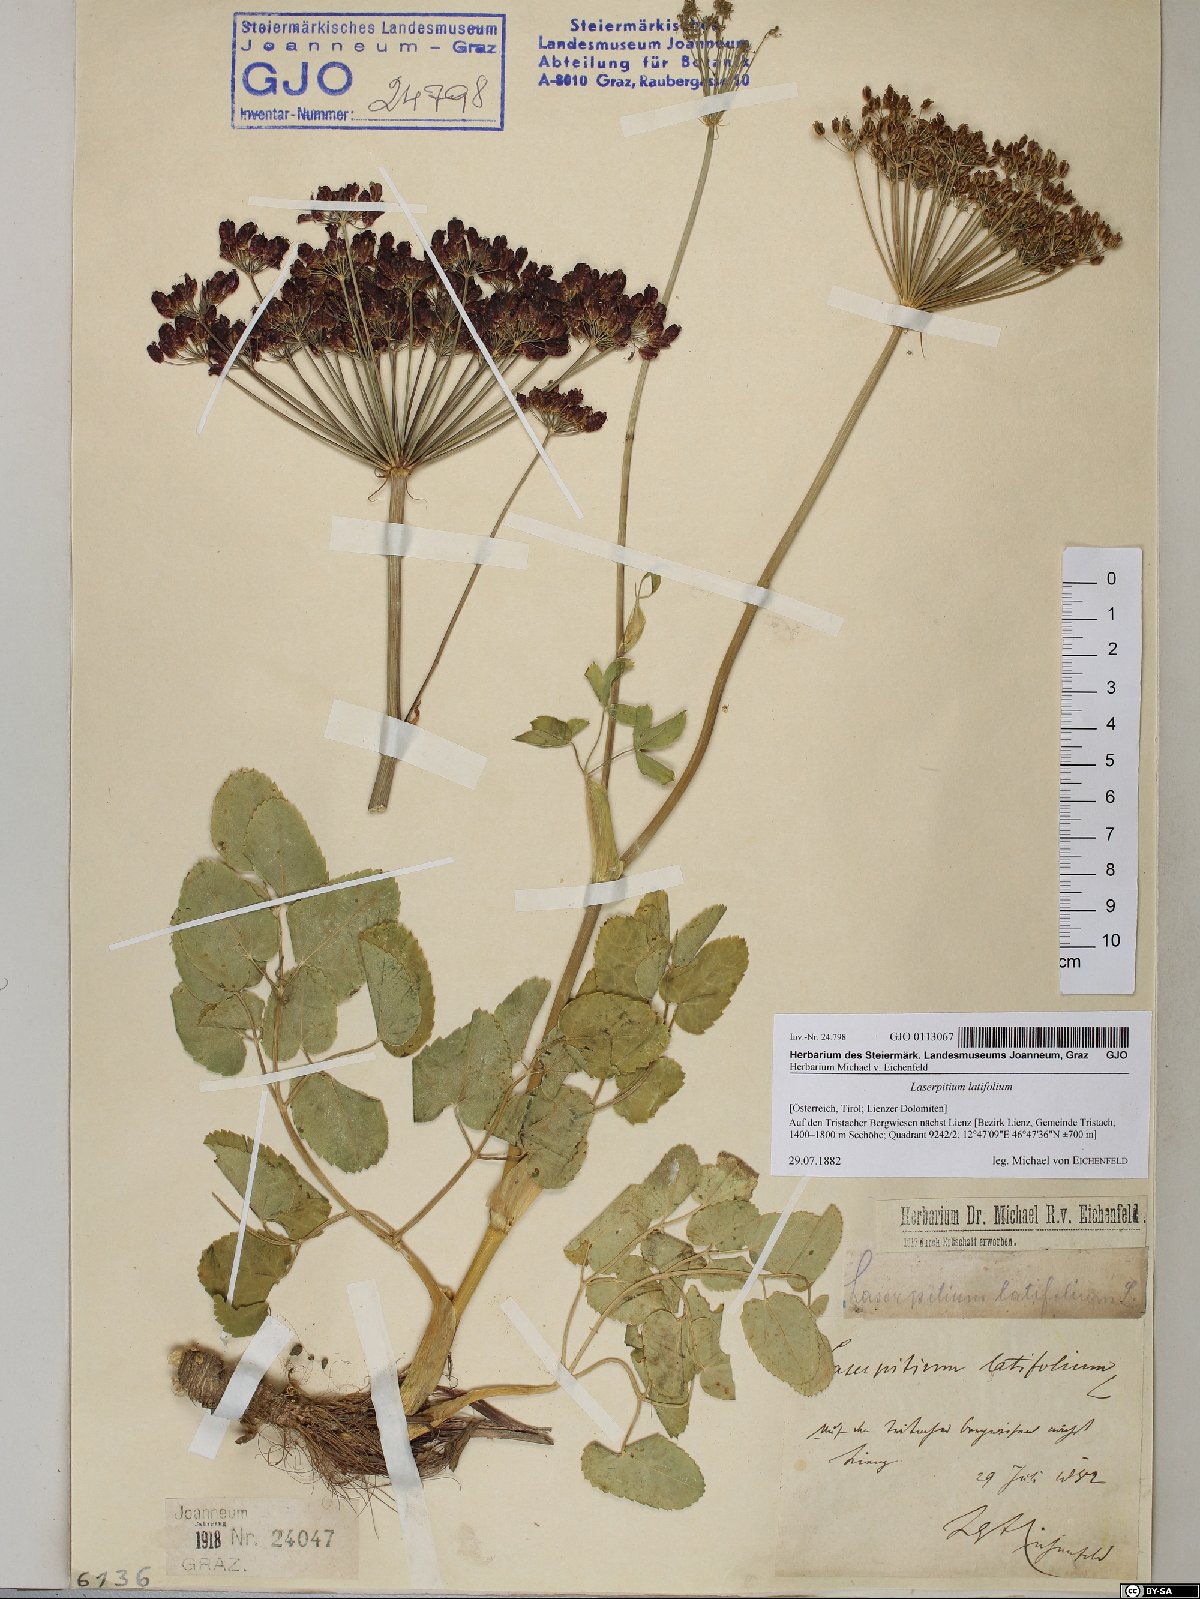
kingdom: Plantae
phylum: Tracheophyta
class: Magnoliopsida
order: Apiales
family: Apiaceae
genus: Laserpitium
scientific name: Laserpitium latifolium
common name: Broadleaf sermountain
